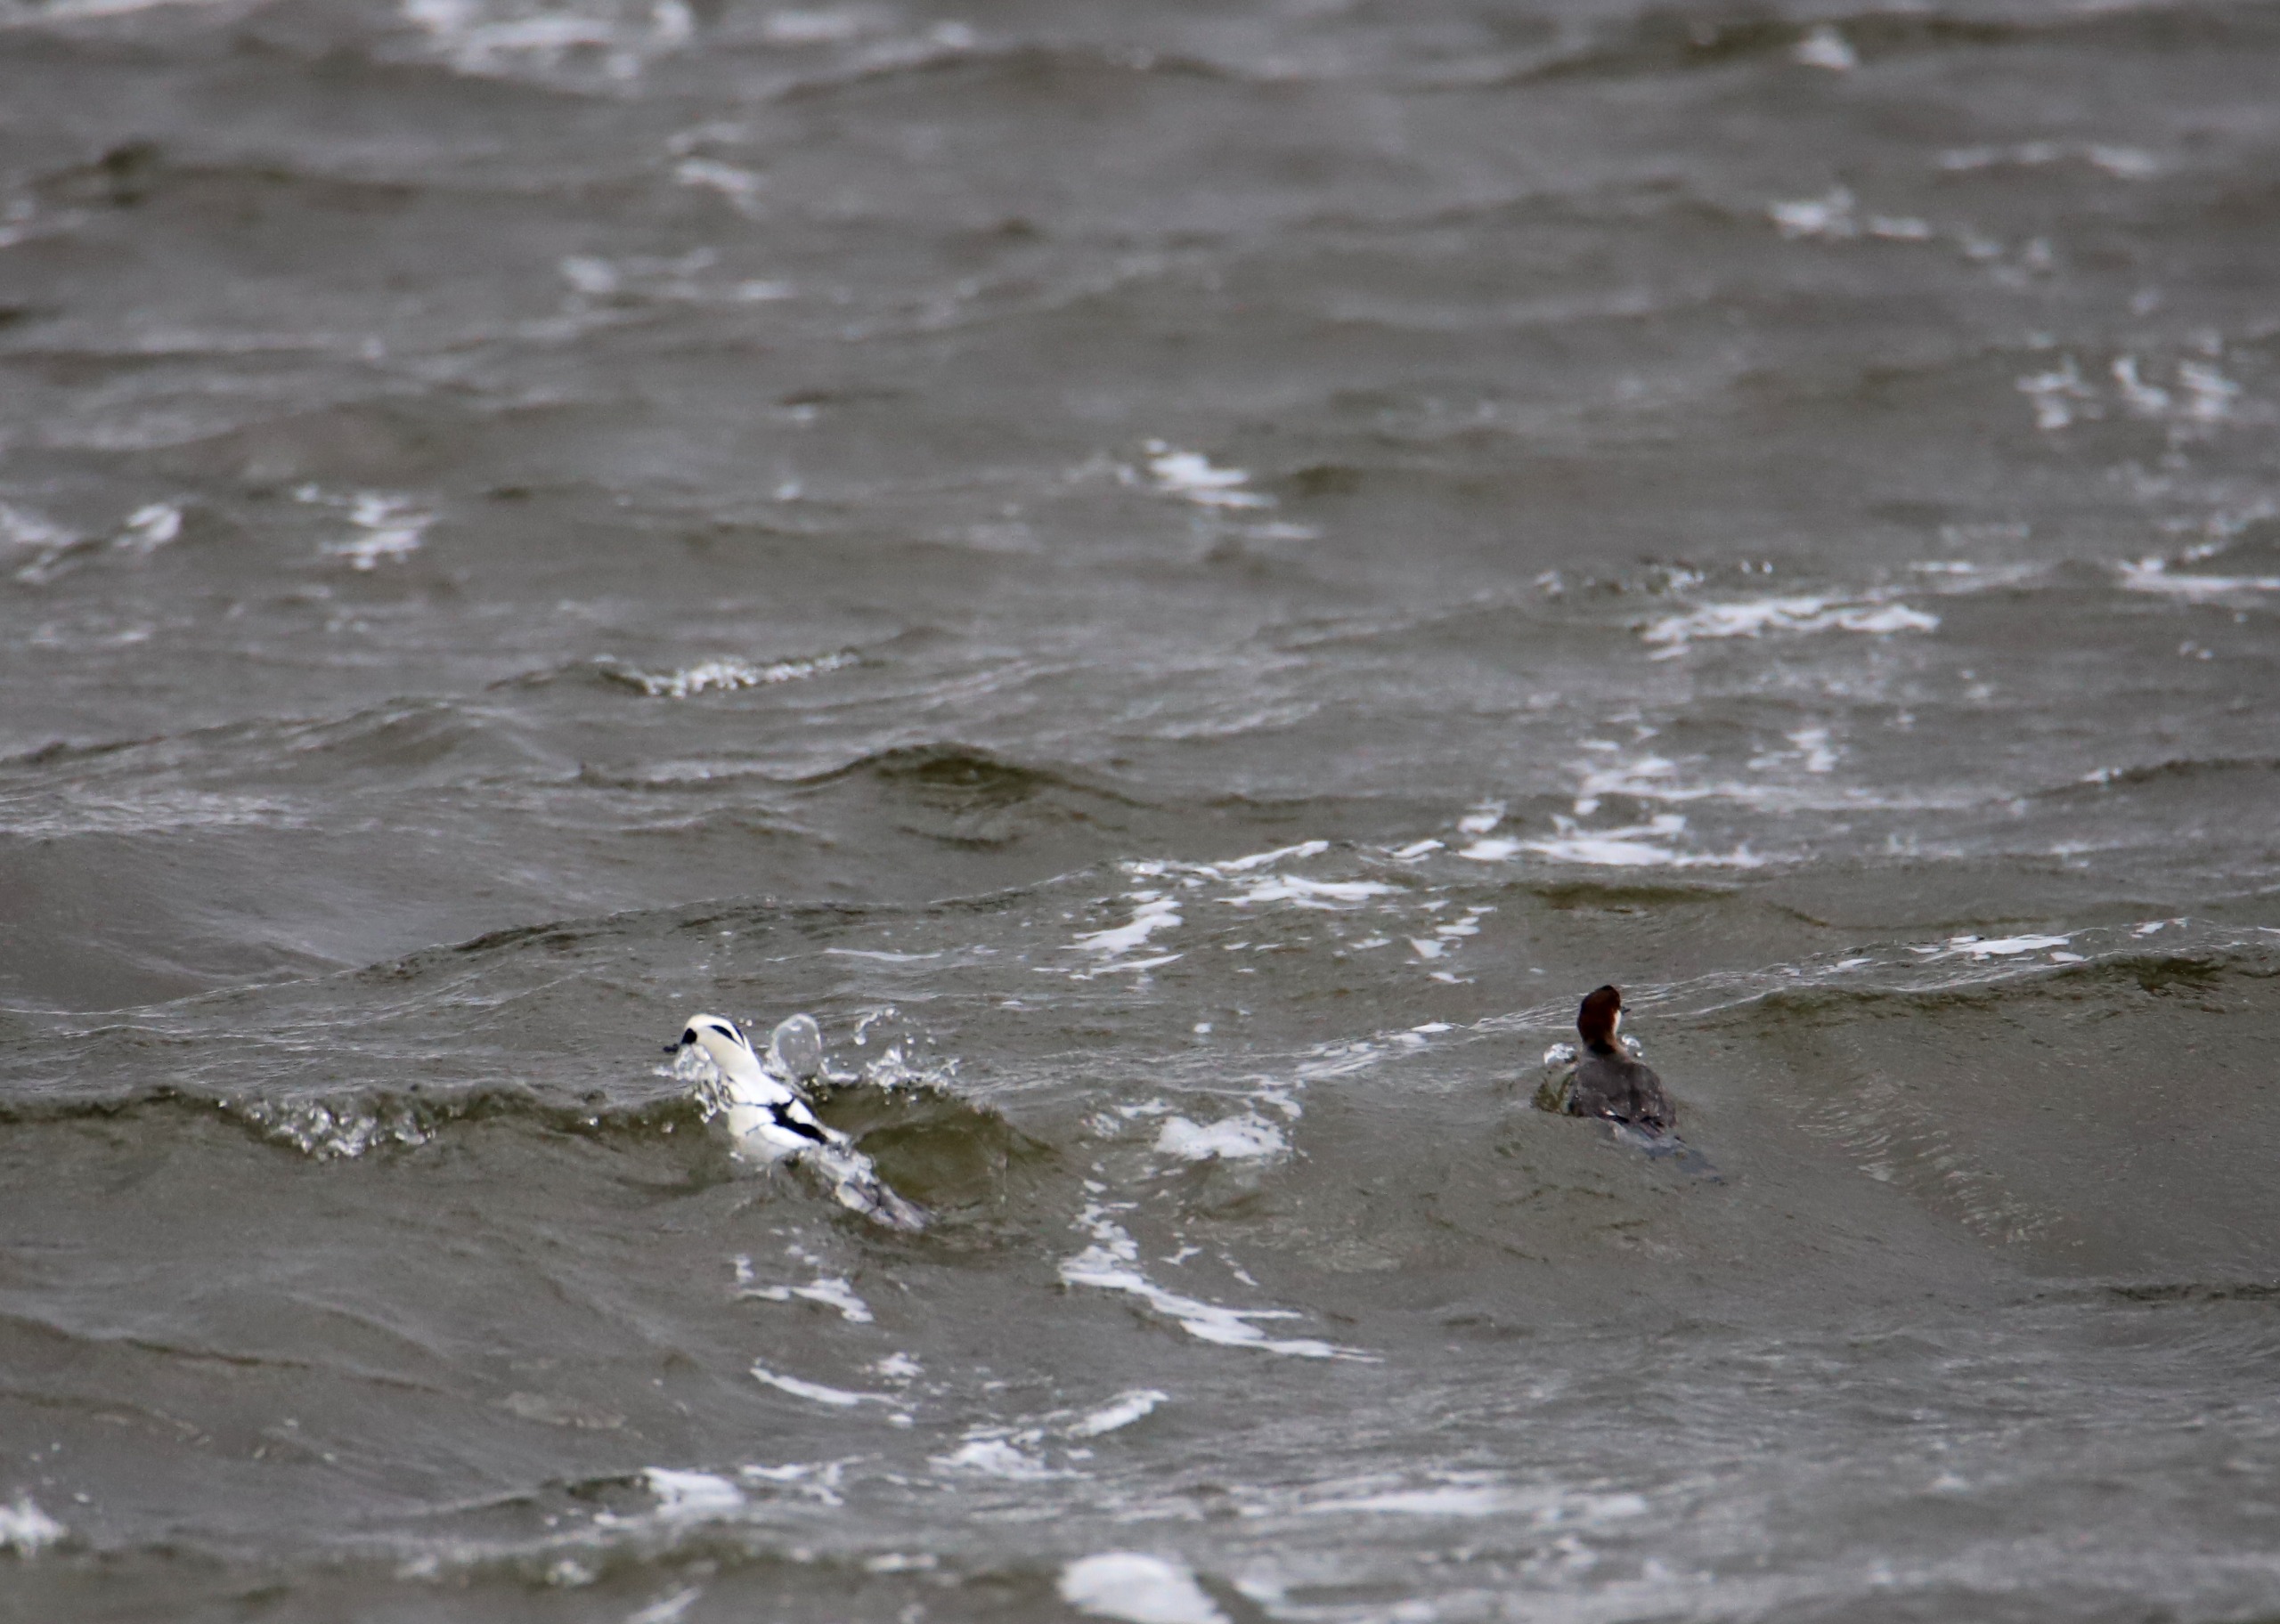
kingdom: Animalia
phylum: Chordata
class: Aves
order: Anseriformes
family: Anatidae
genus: Mergellus
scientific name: Mergellus albellus
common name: Lille skallesluger
